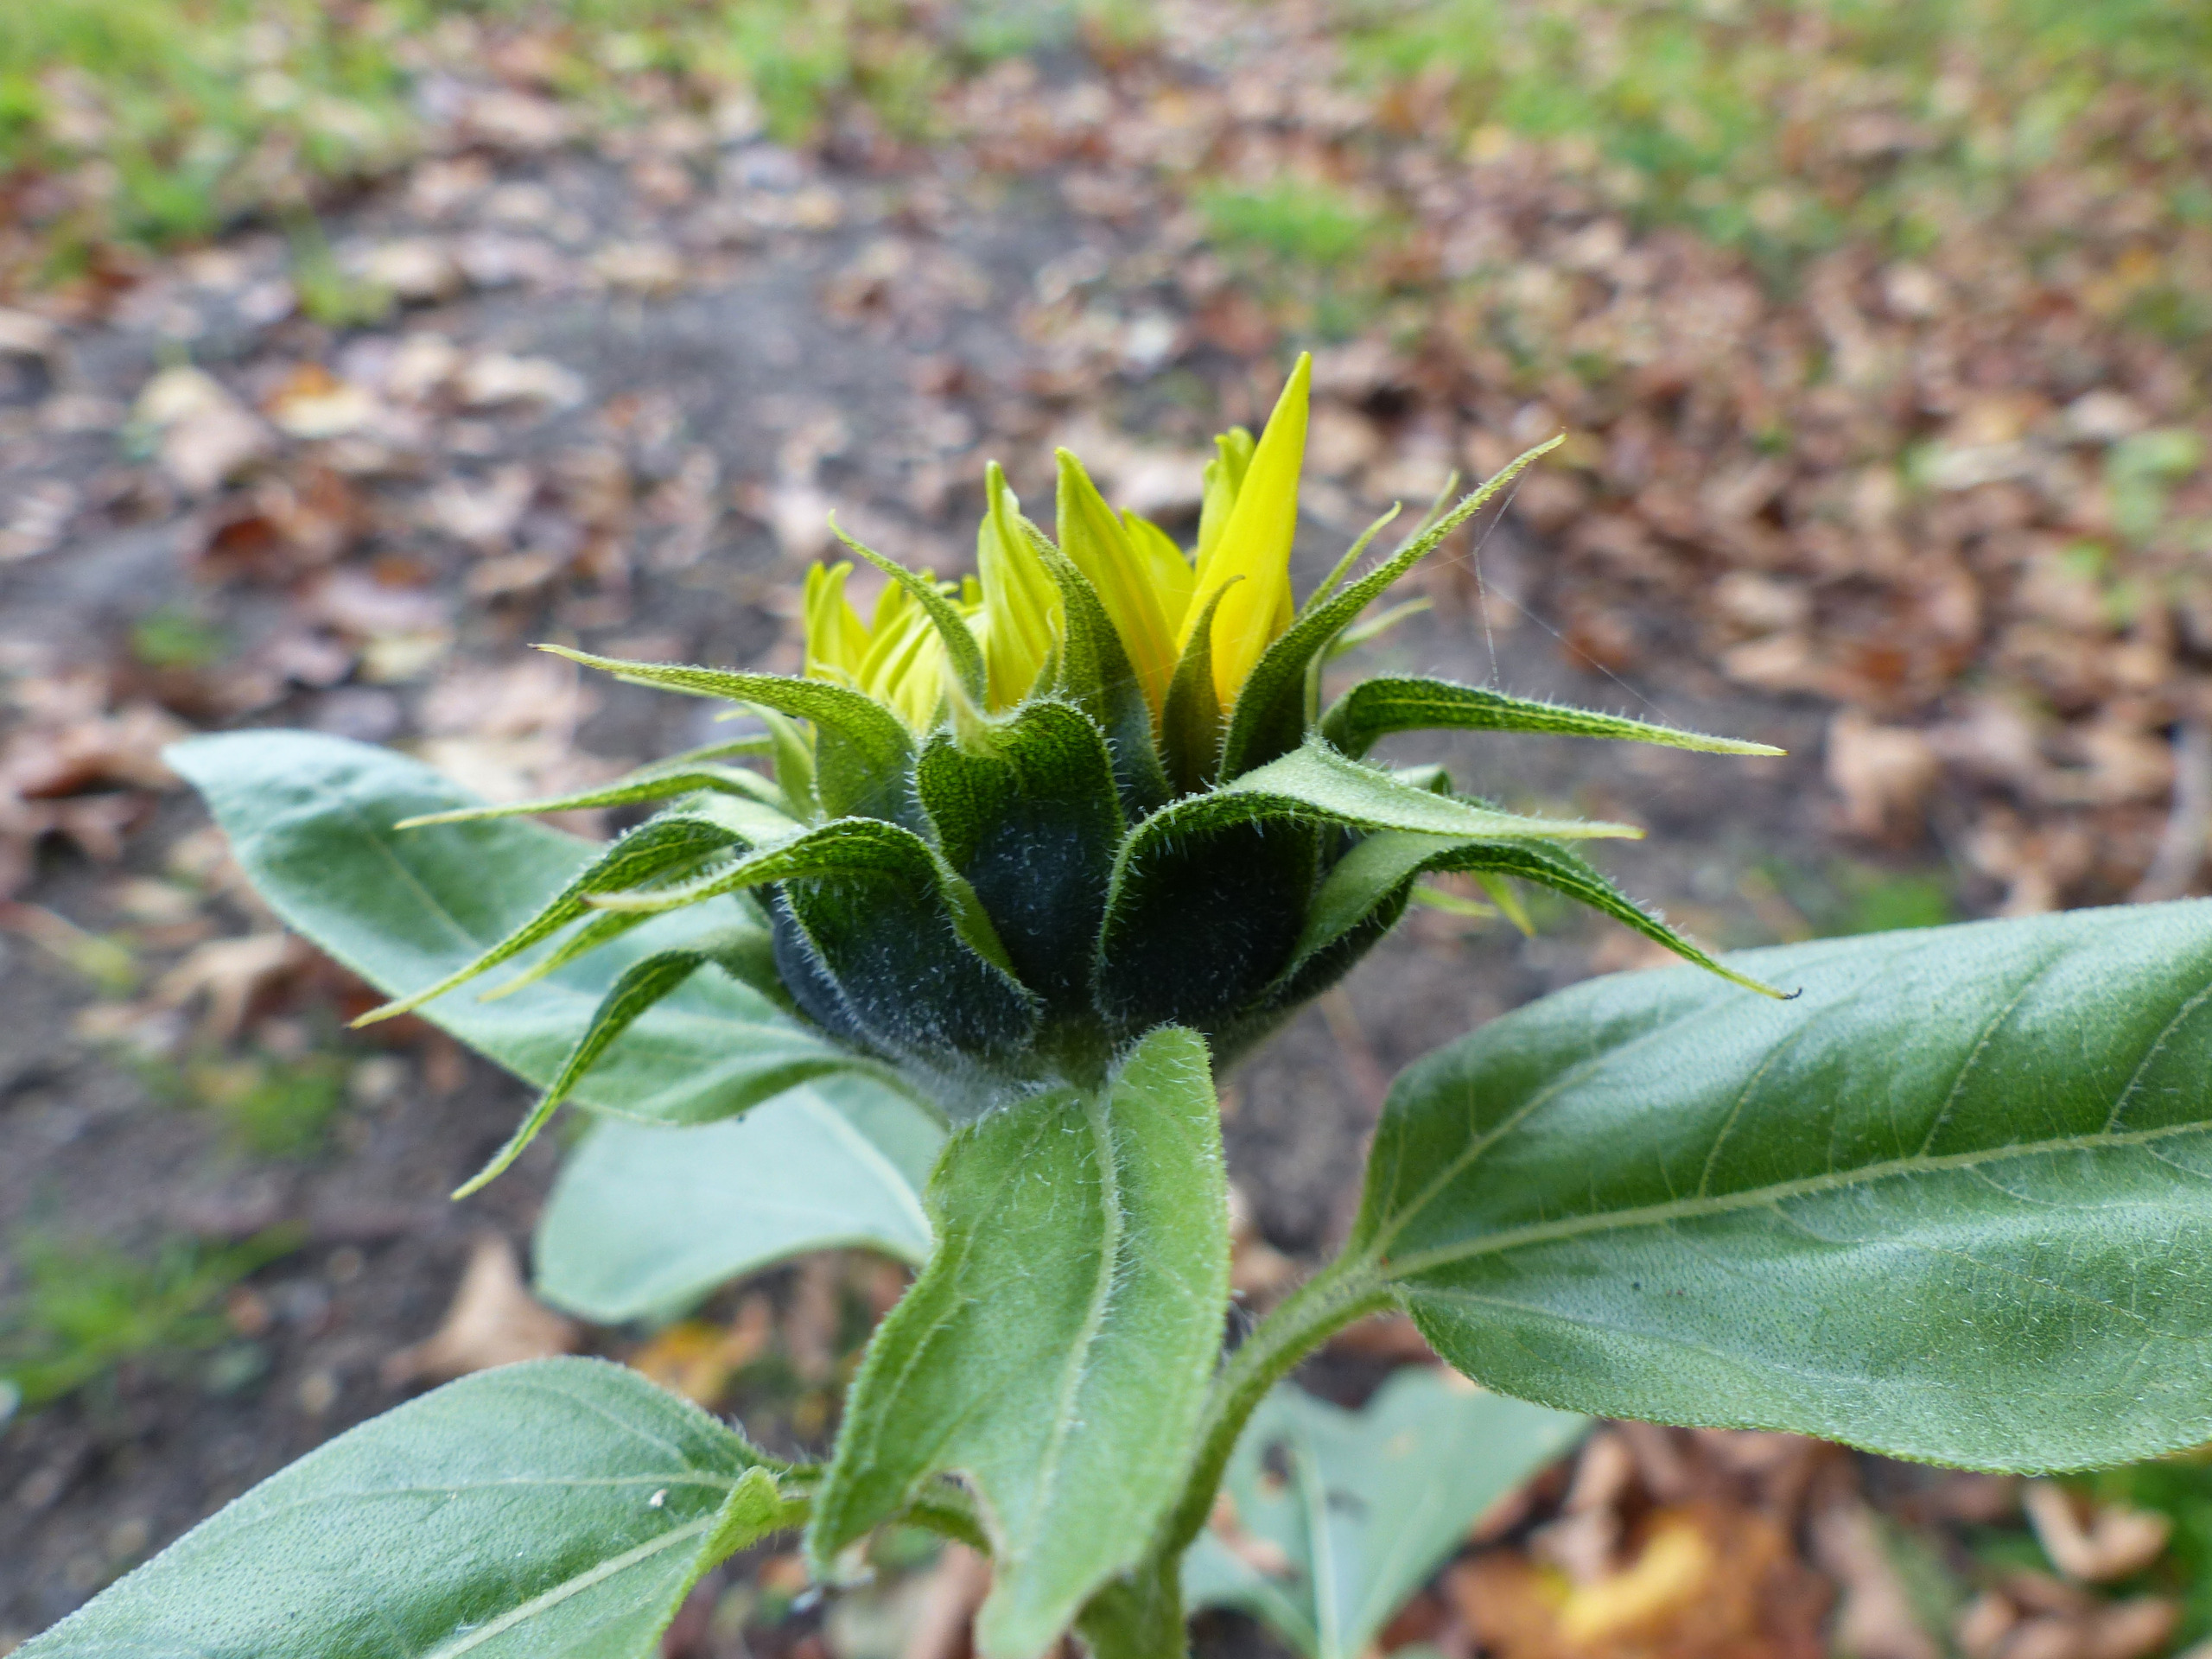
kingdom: Plantae
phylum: Tracheophyta
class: Magnoliopsida
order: Asterales
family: Asteraceae
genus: Helianthus
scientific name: Helianthus annuus
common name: Solsikke
